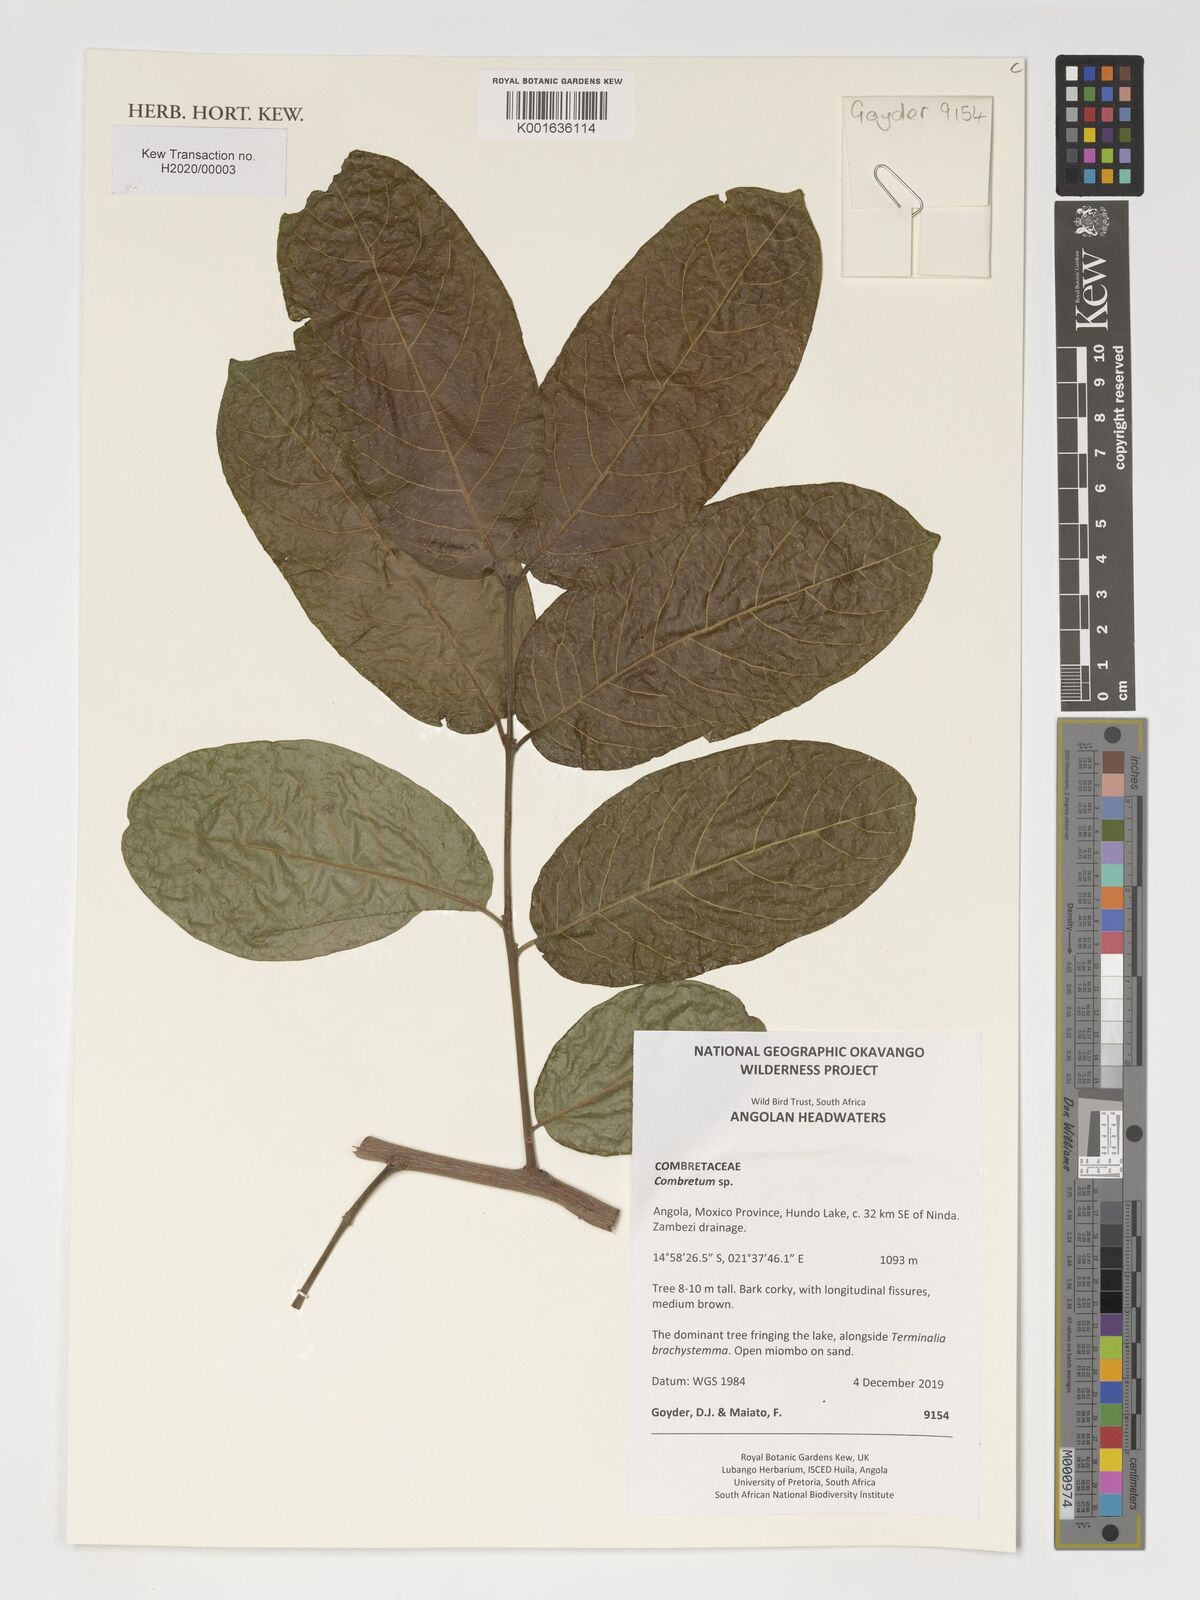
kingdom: Plantae
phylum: Tracheophyta
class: Magnoliopsida
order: Myrtales
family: Combretaceae
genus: Combretum
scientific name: Combretum
